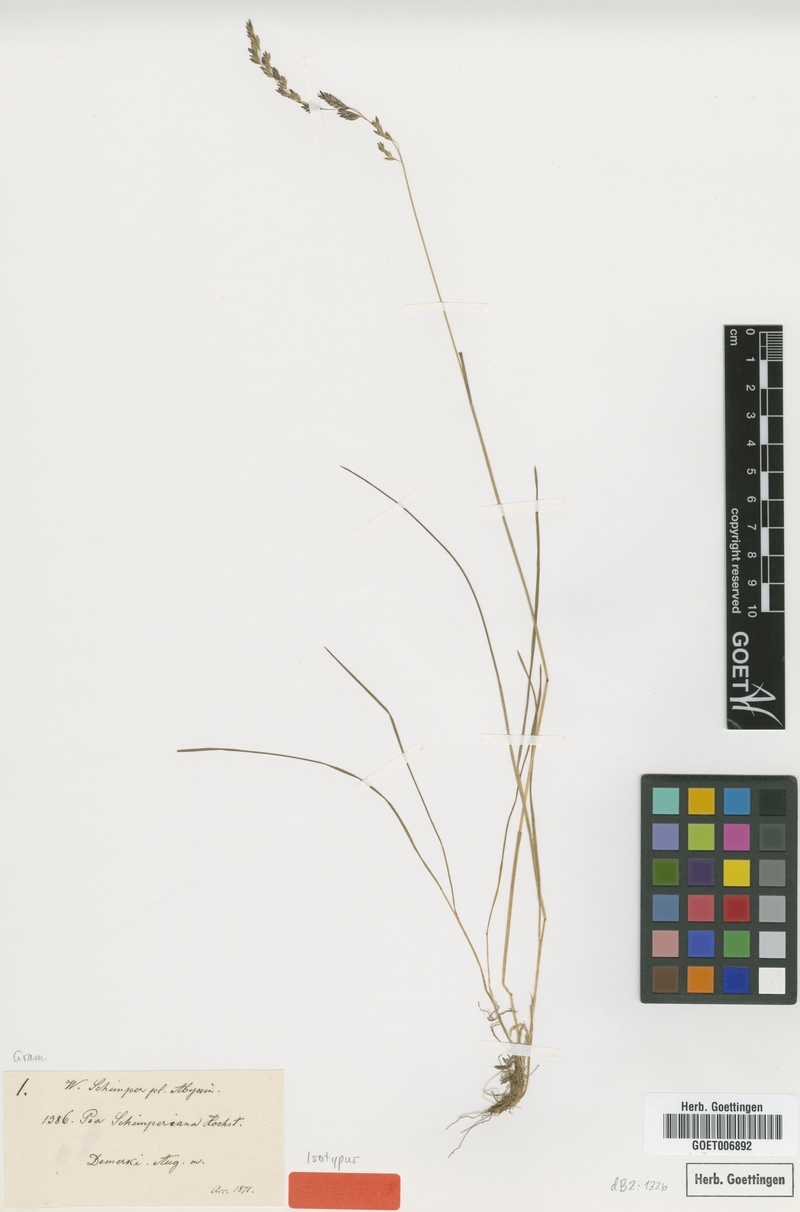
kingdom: Plantae
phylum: Tracheophyta
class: Liliopsida
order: Poales
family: Poaceae
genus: Poa
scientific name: Poa schimperiana
